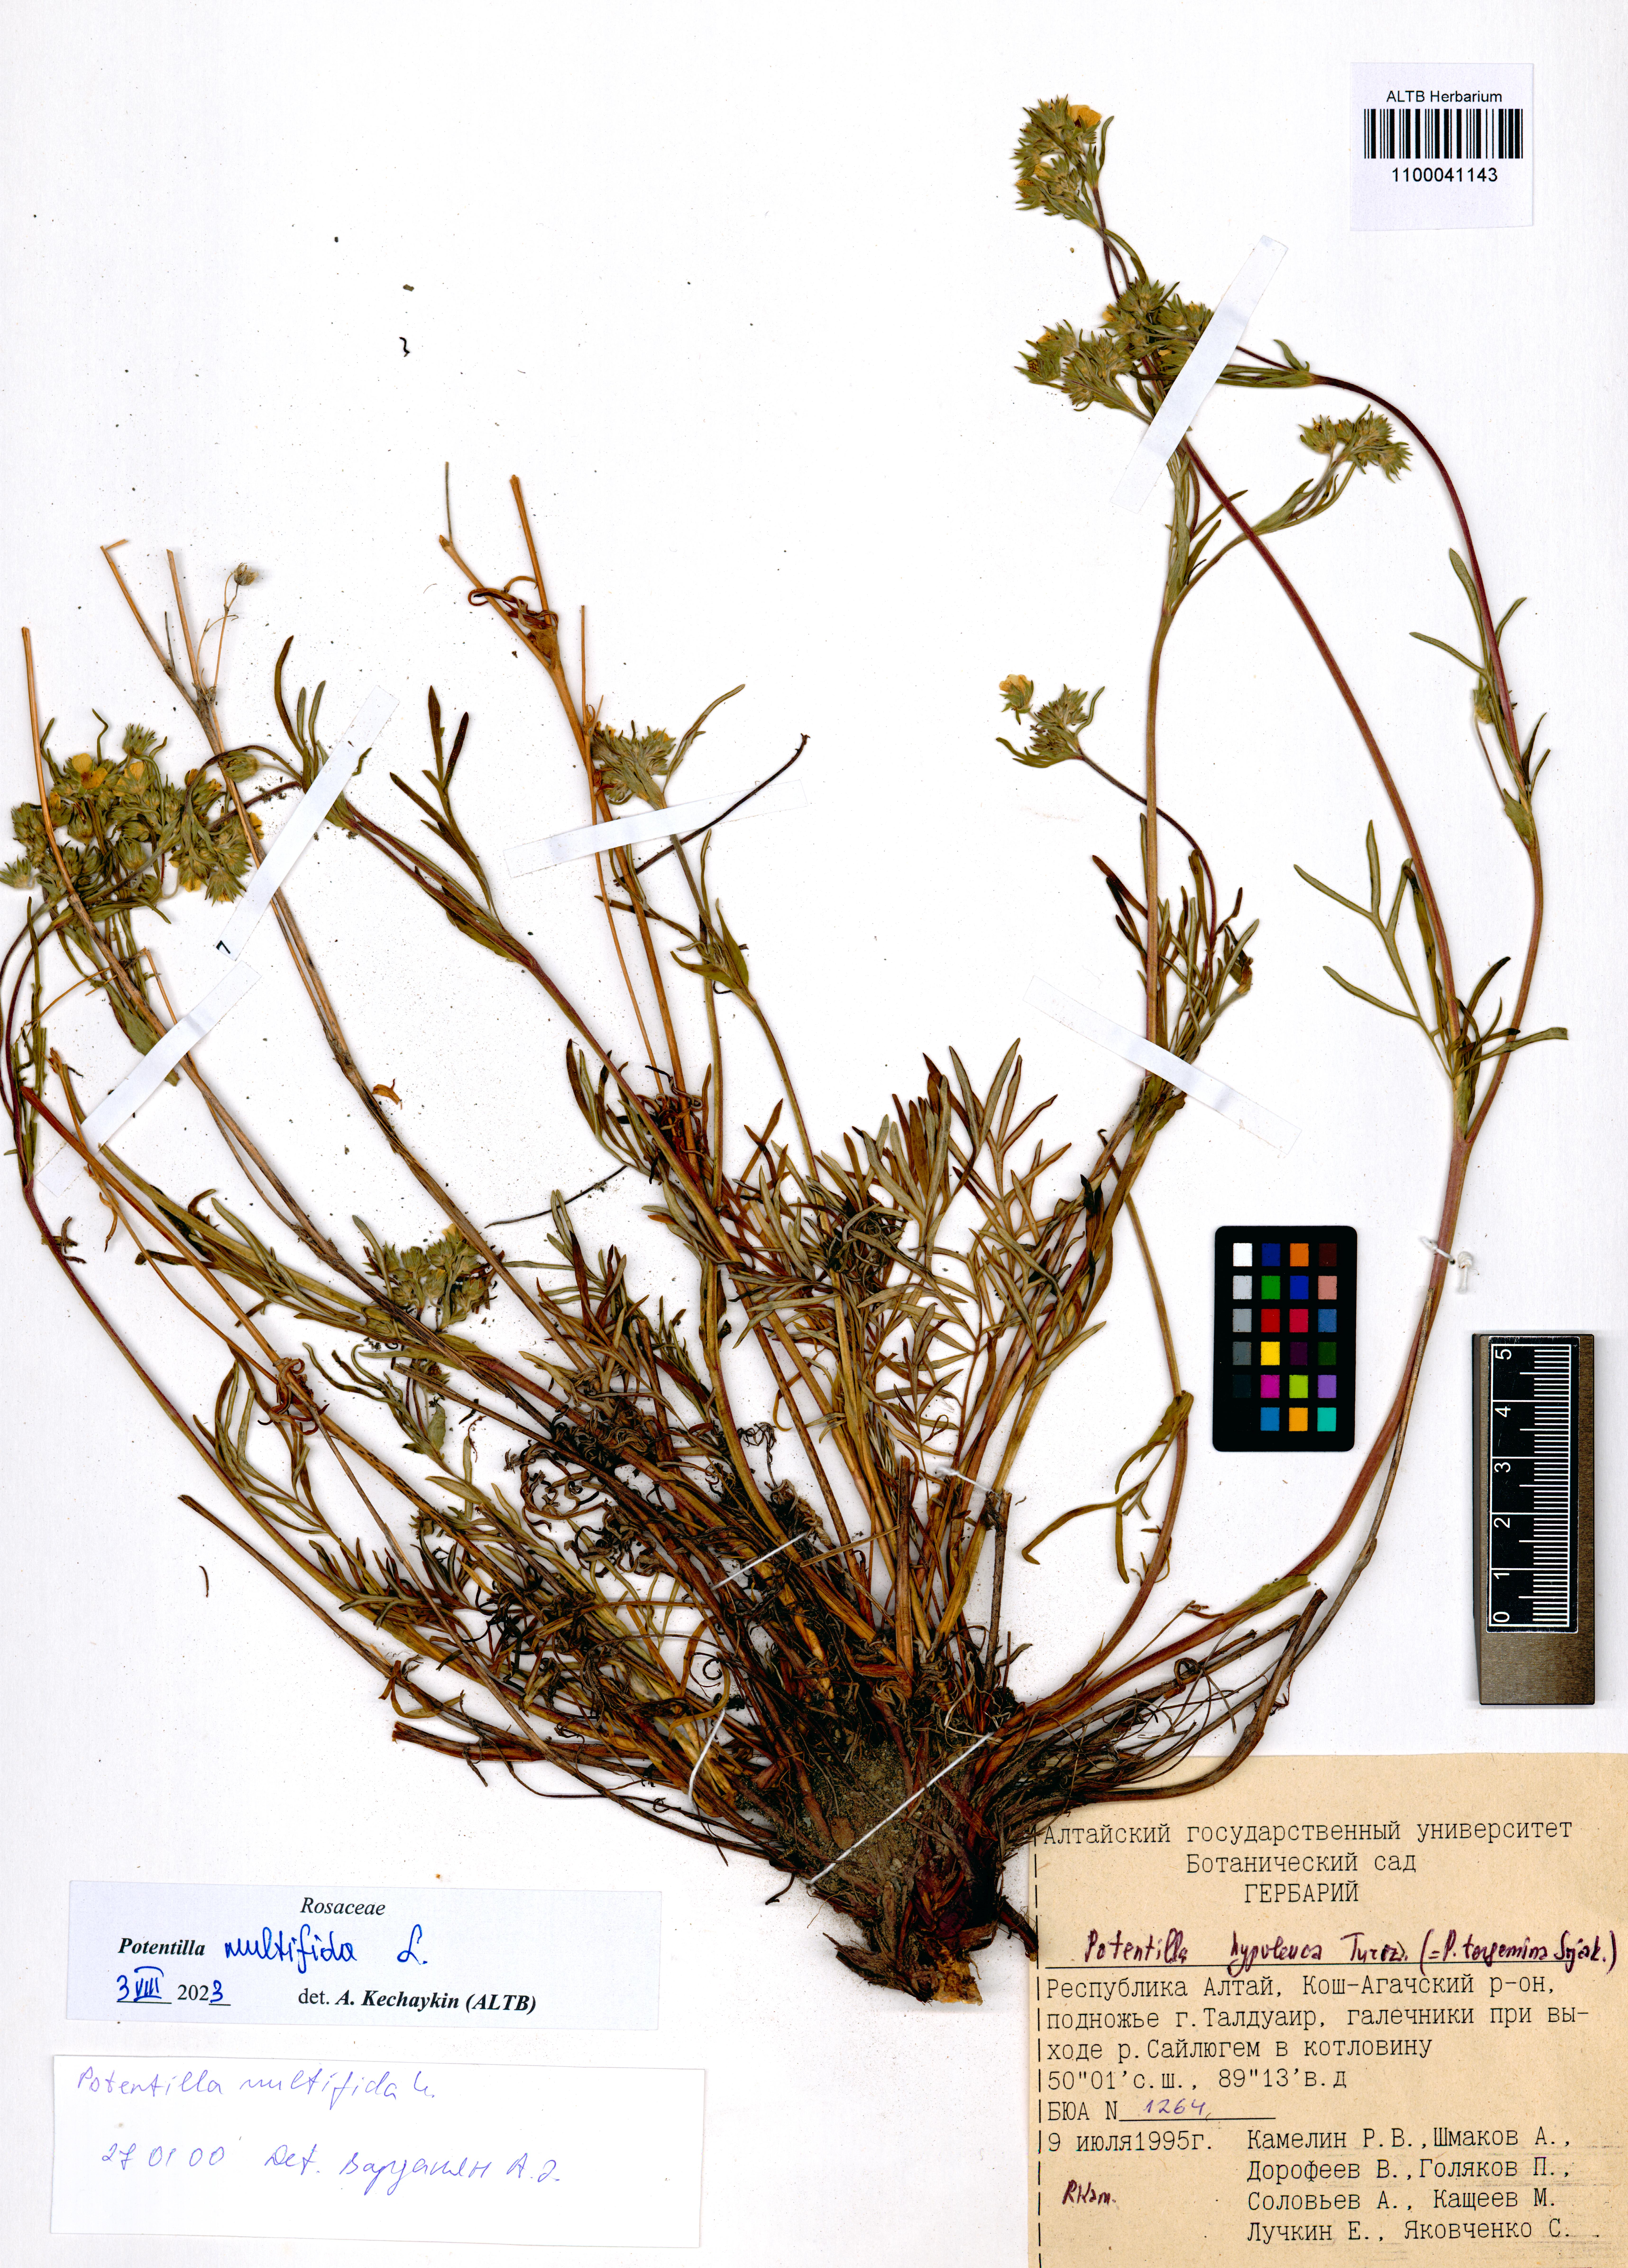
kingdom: Plantae
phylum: Tracheophyta
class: Magnoliopsida
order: Rosales
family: Rosaceae
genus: Potentilla
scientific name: Potentilla multifida
